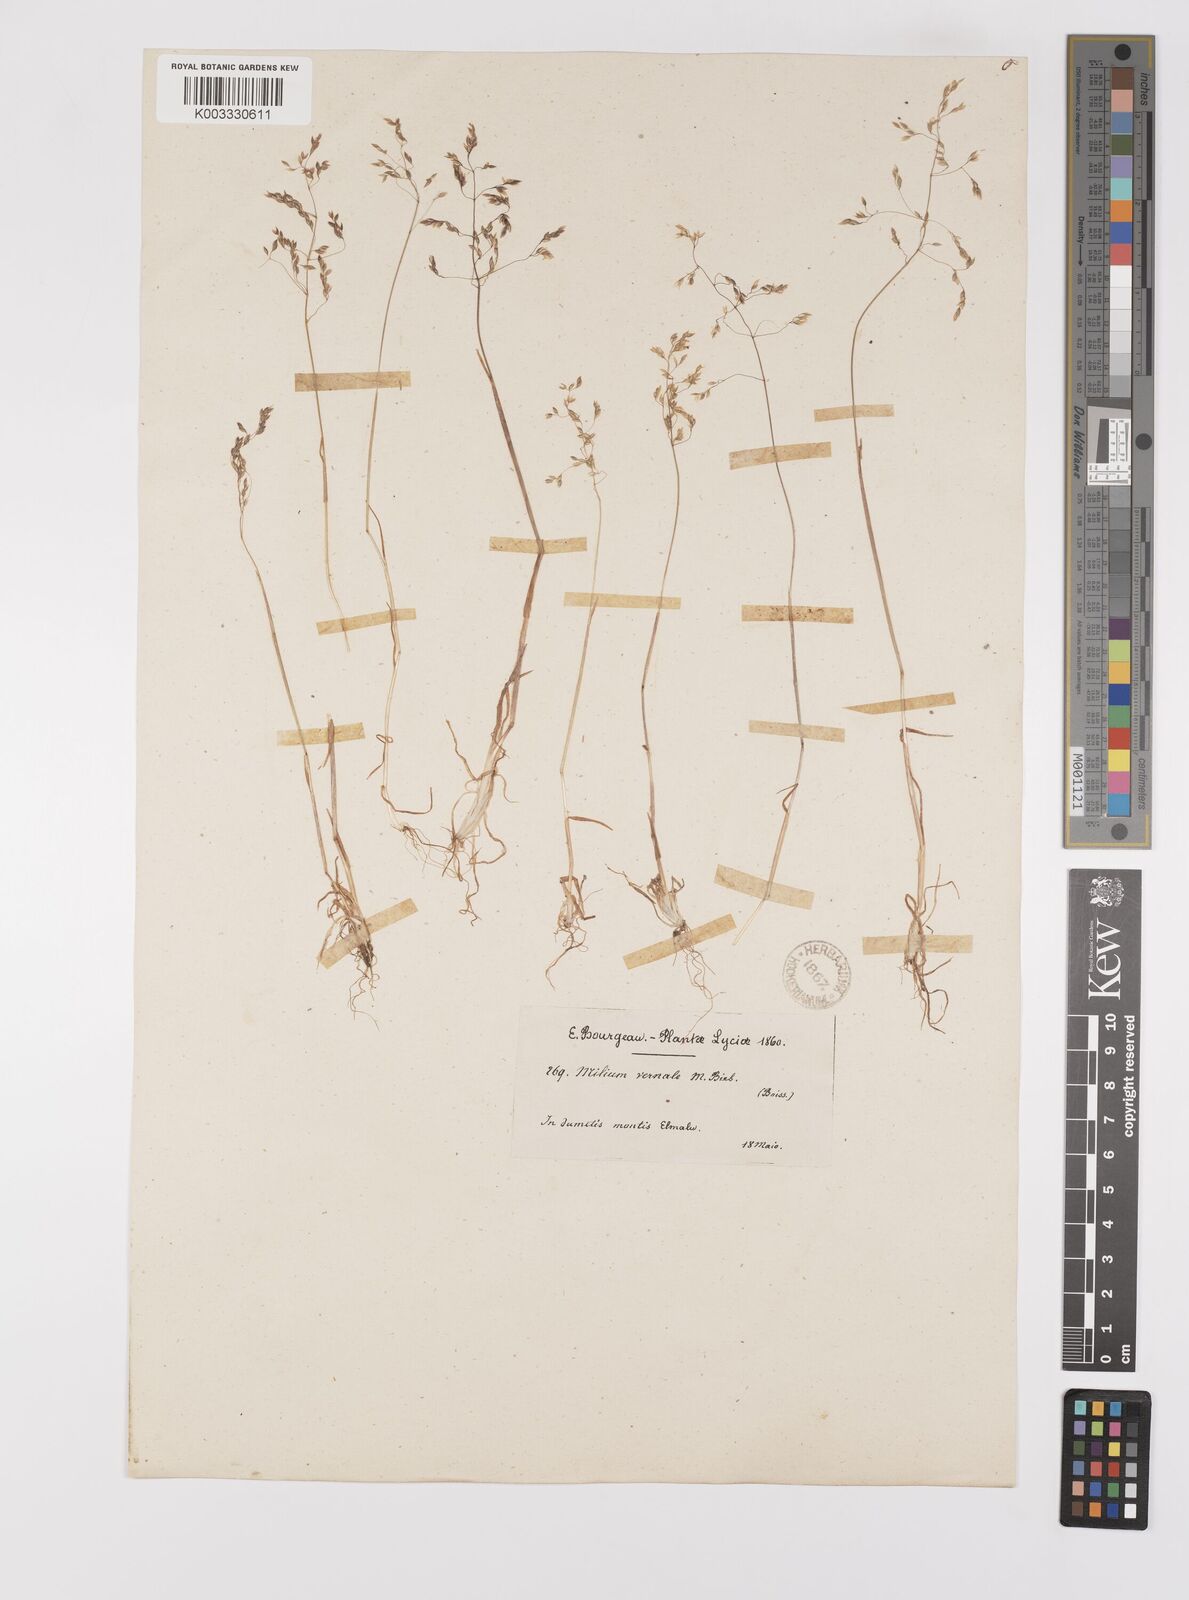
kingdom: Plantae
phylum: Tracheophyta
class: Liliopsida
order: Poales
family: Poaceae
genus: Milium
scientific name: Milium vernale
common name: Early millet
